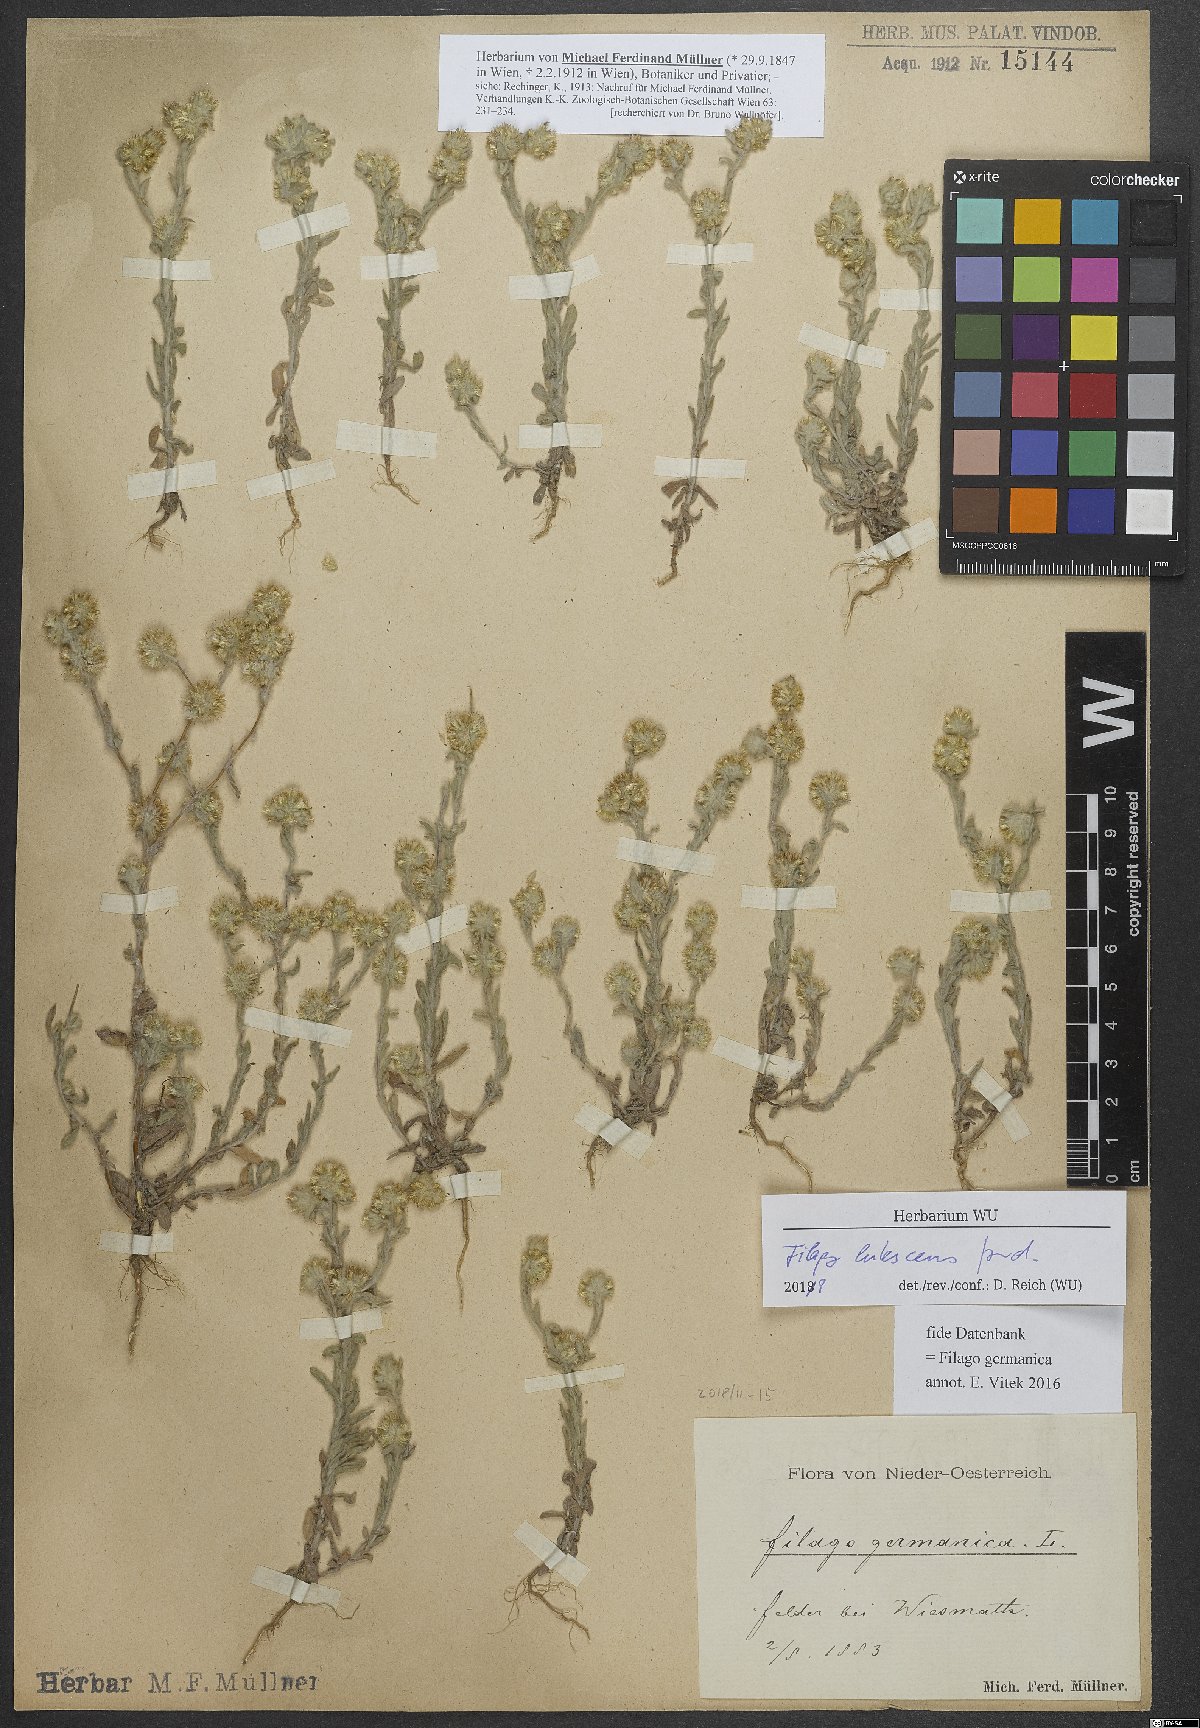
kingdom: Plantae
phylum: Tracheophyta
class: Magnoliopsida
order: Asterales
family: Asteraceae
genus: Filago
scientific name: Filago lutescens
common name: Red-tipped cudweed
